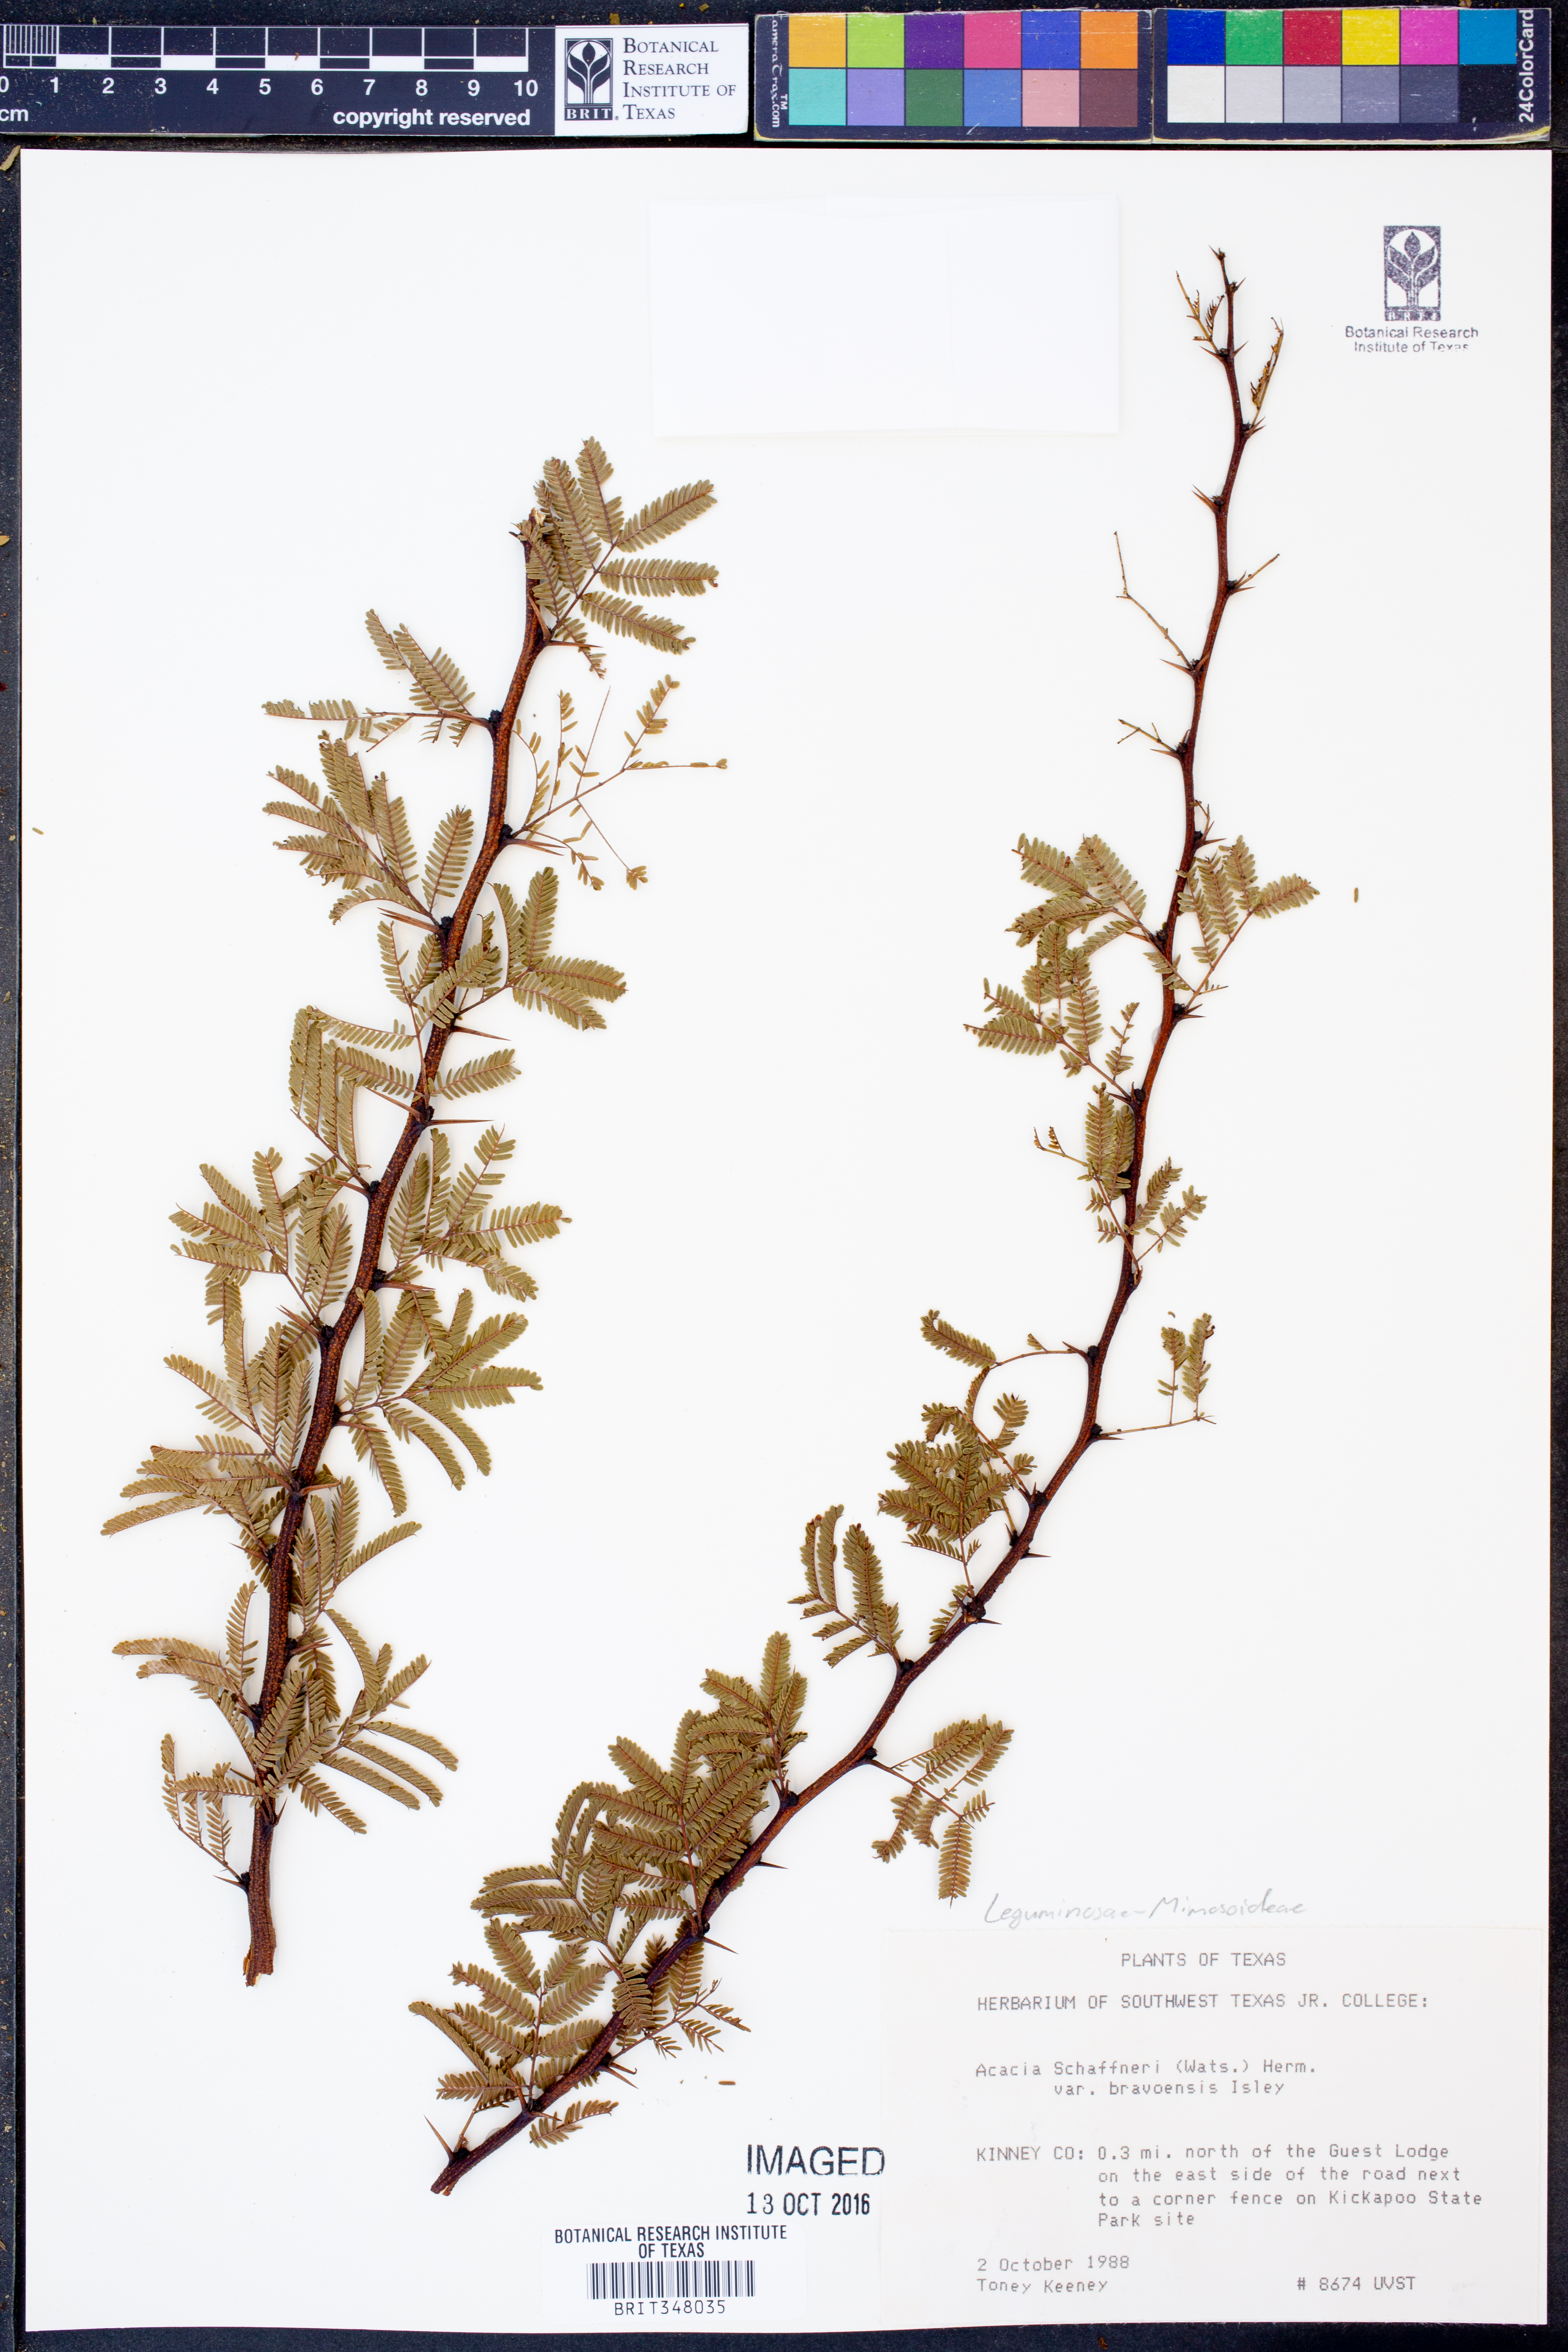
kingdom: Plantae
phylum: Tracheophyta
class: Magnoliopsida
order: Fabales
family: Fabaceae
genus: Vachellia
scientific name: Vachellia bravoensis
